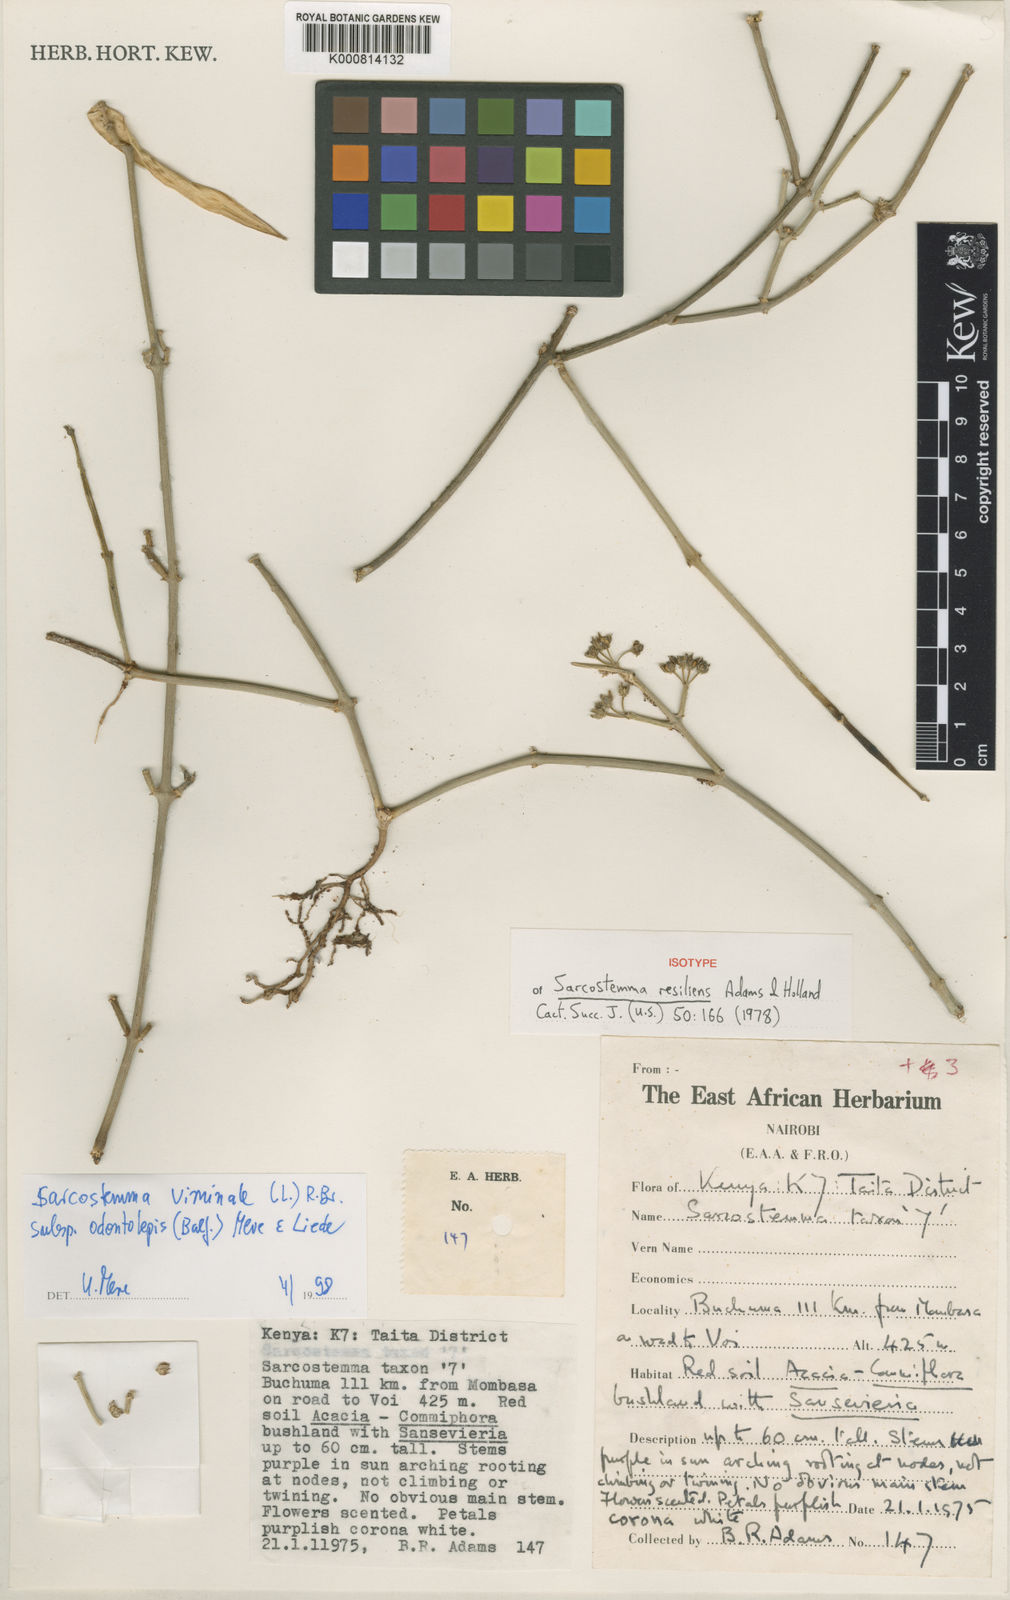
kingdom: Plantae
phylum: Tracheophyta
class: Magnoliopsida
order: Gentianales
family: Apocynaceae
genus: Cynanchum
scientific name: Cynanchum resiliens
